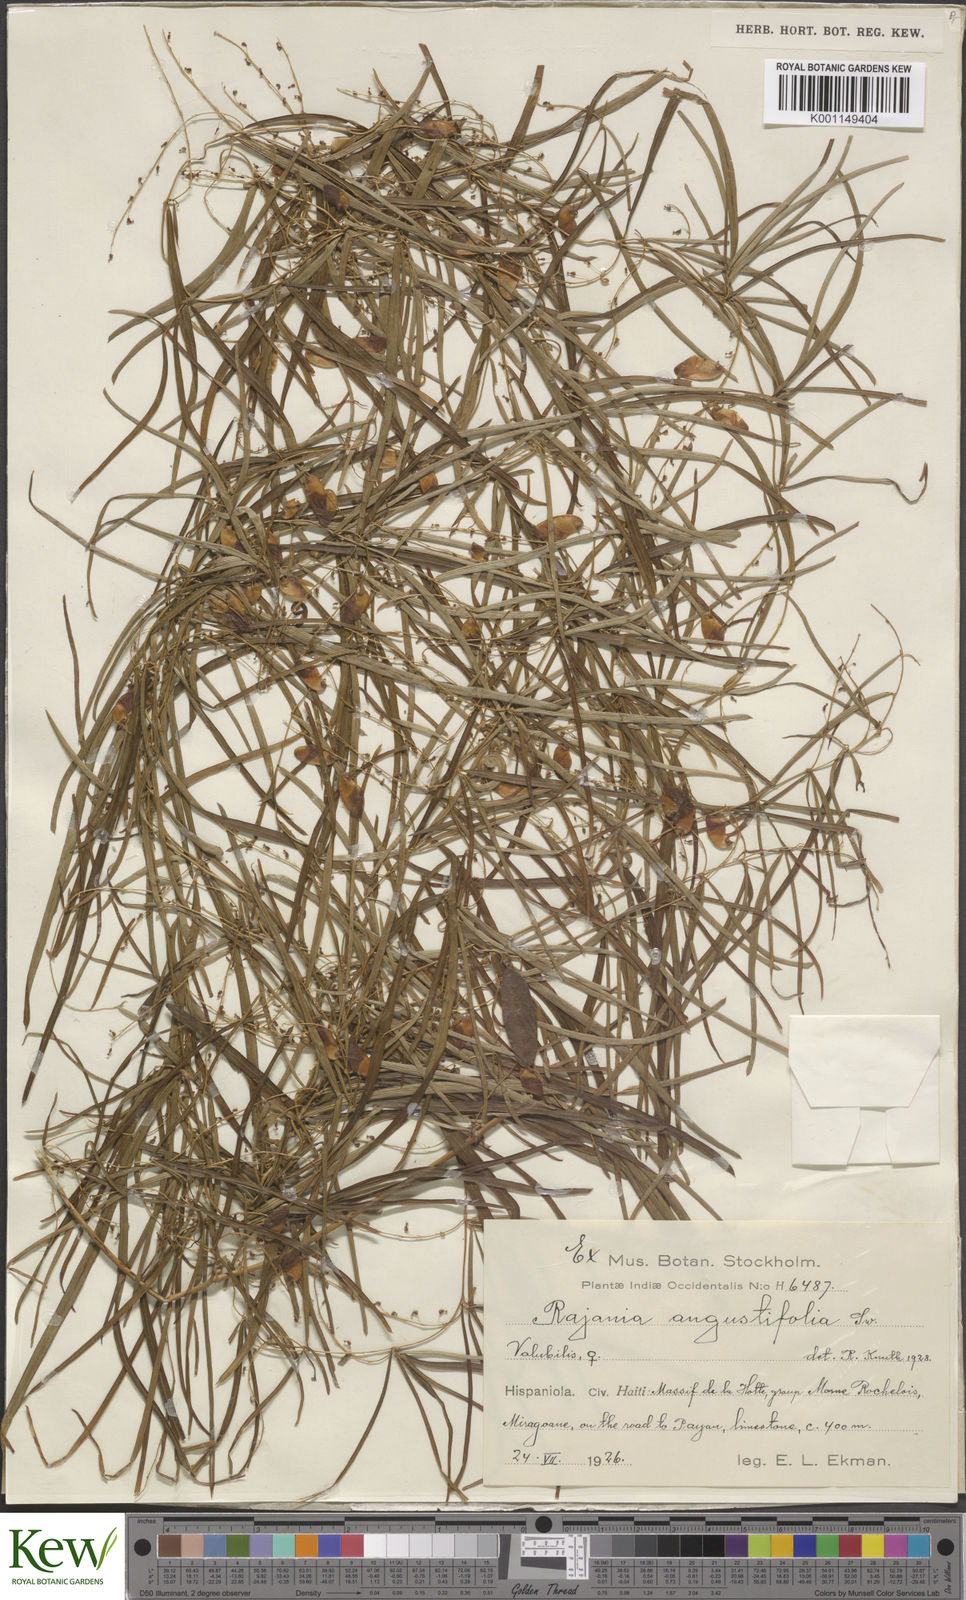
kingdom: Plantae
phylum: Tracheophyta
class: Liliopsida
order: Dioscoreales
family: Dioscoreaceae
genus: Dioscorea
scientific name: Dioscorea
